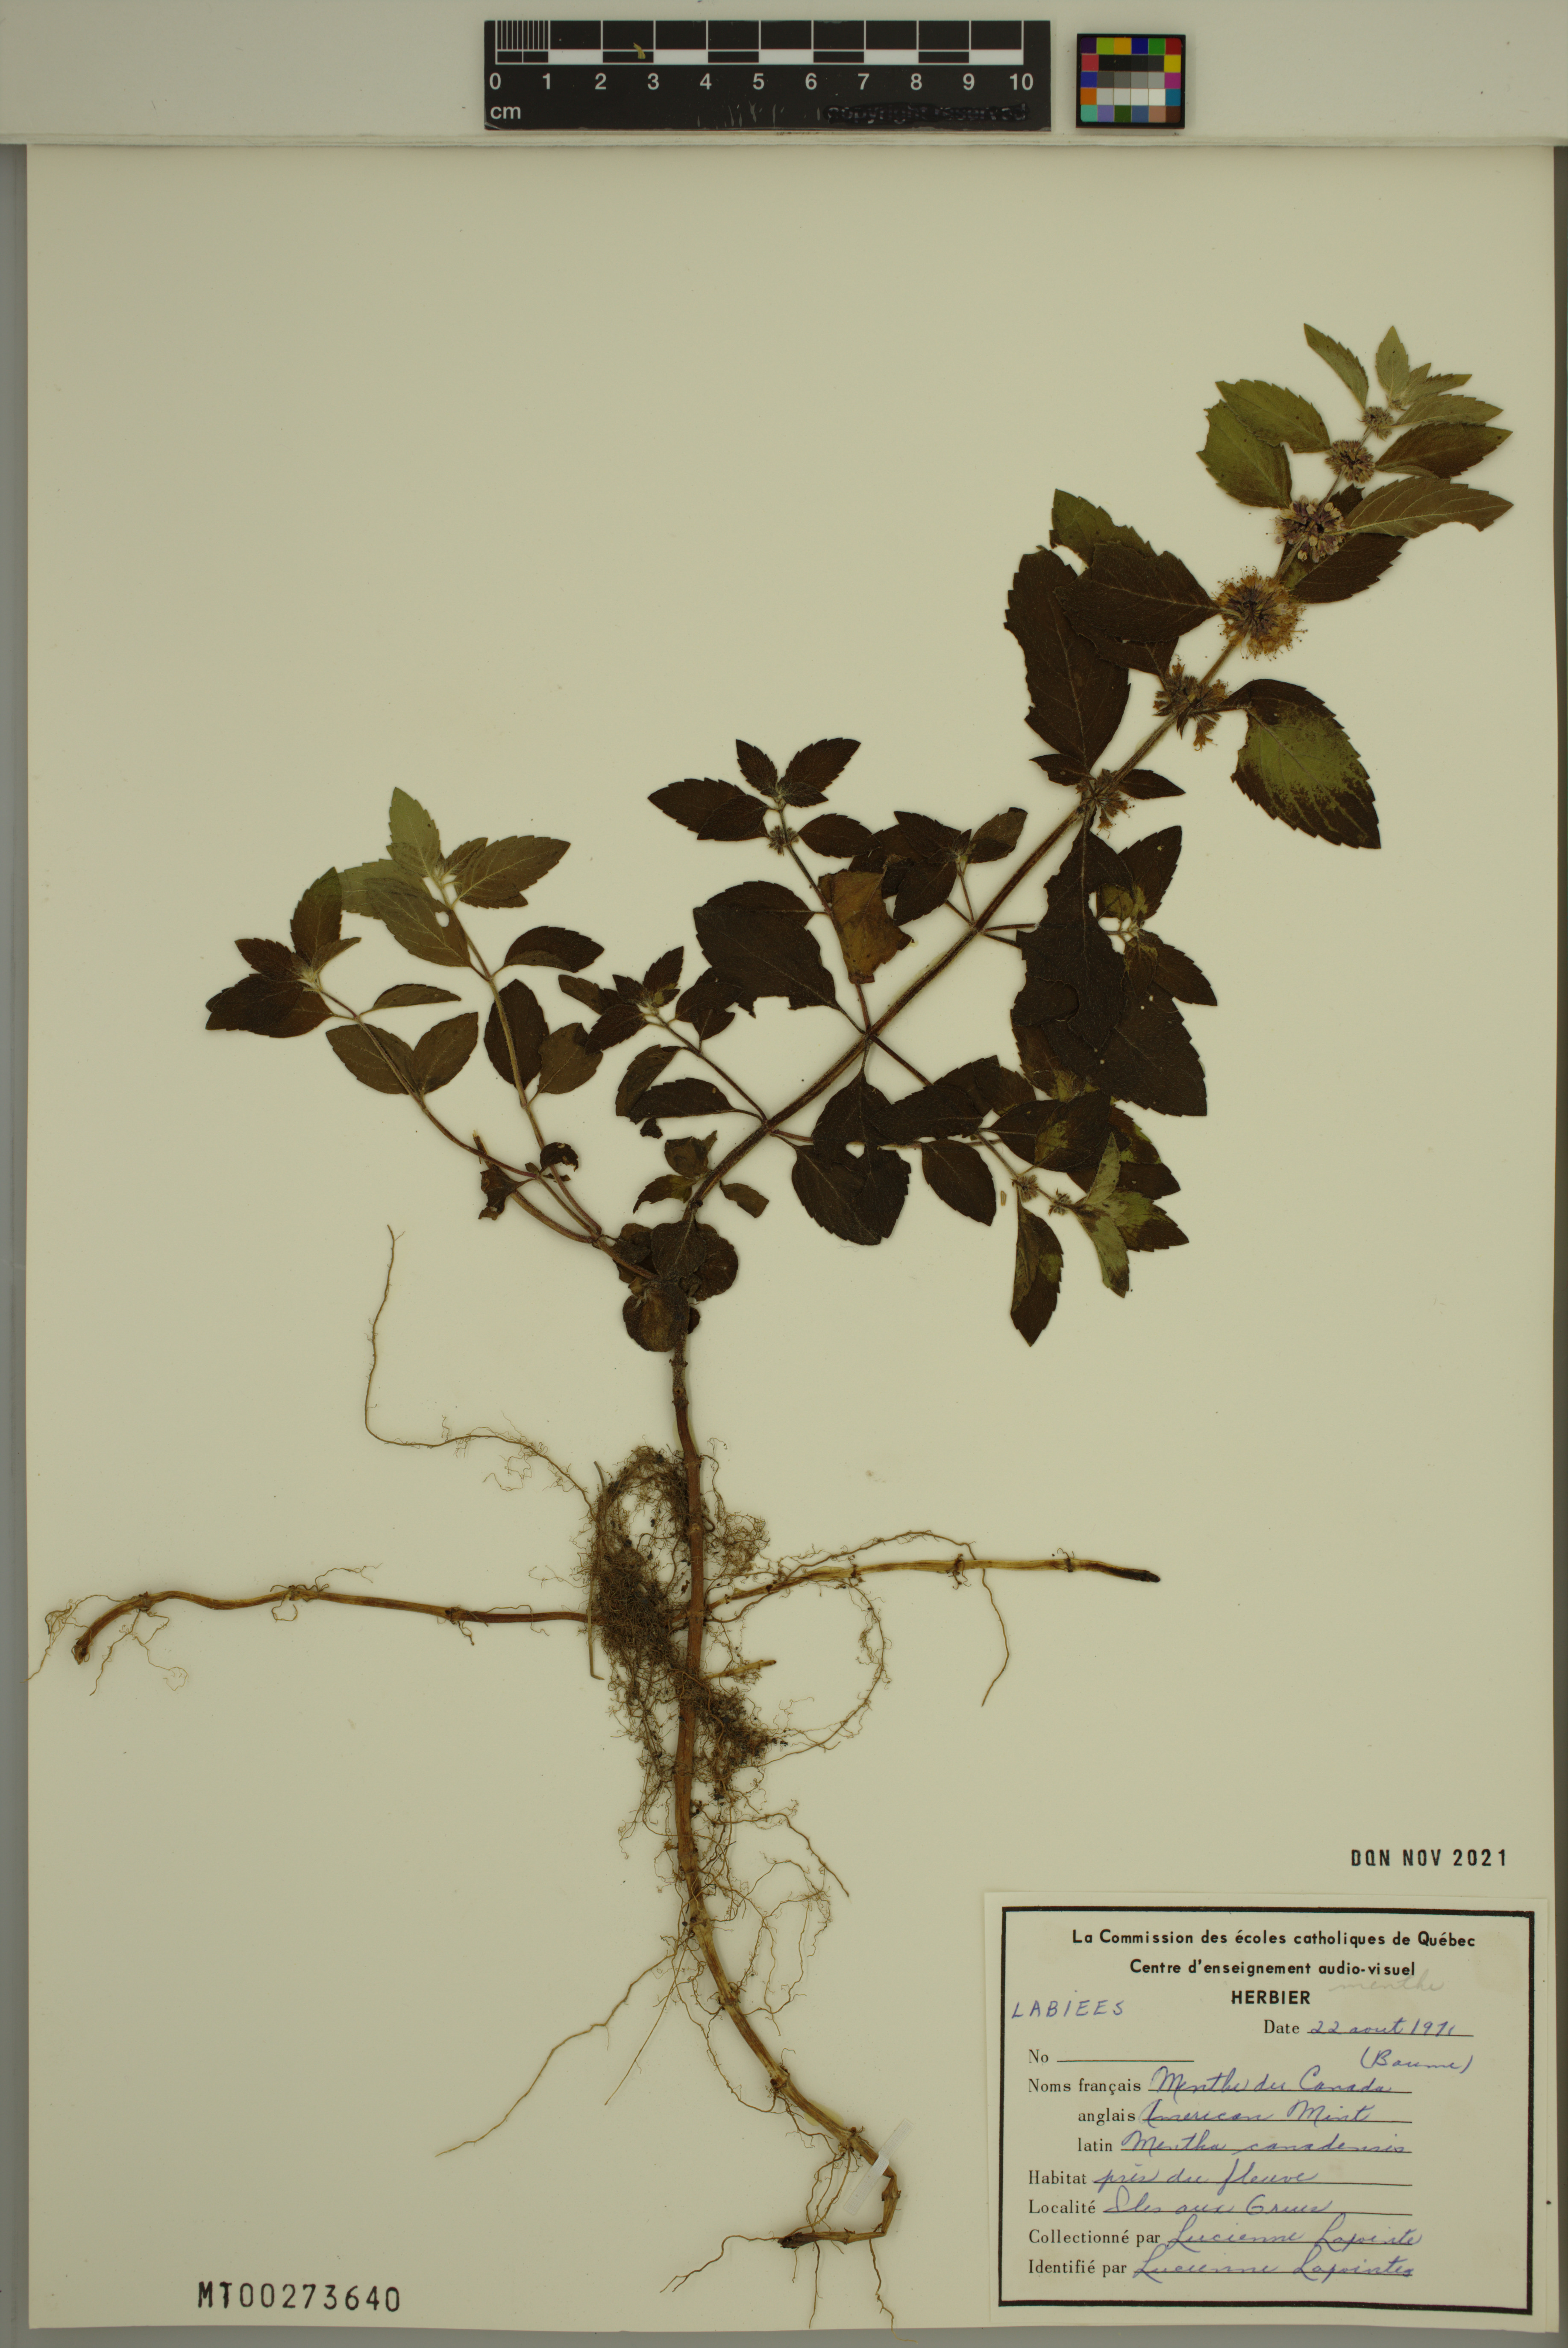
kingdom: Plantae
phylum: Tracheophyta
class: Magnoliopsida
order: Lamiales
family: Lamiaceae
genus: Mentha
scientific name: Mentha canadensis
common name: American corn mint
